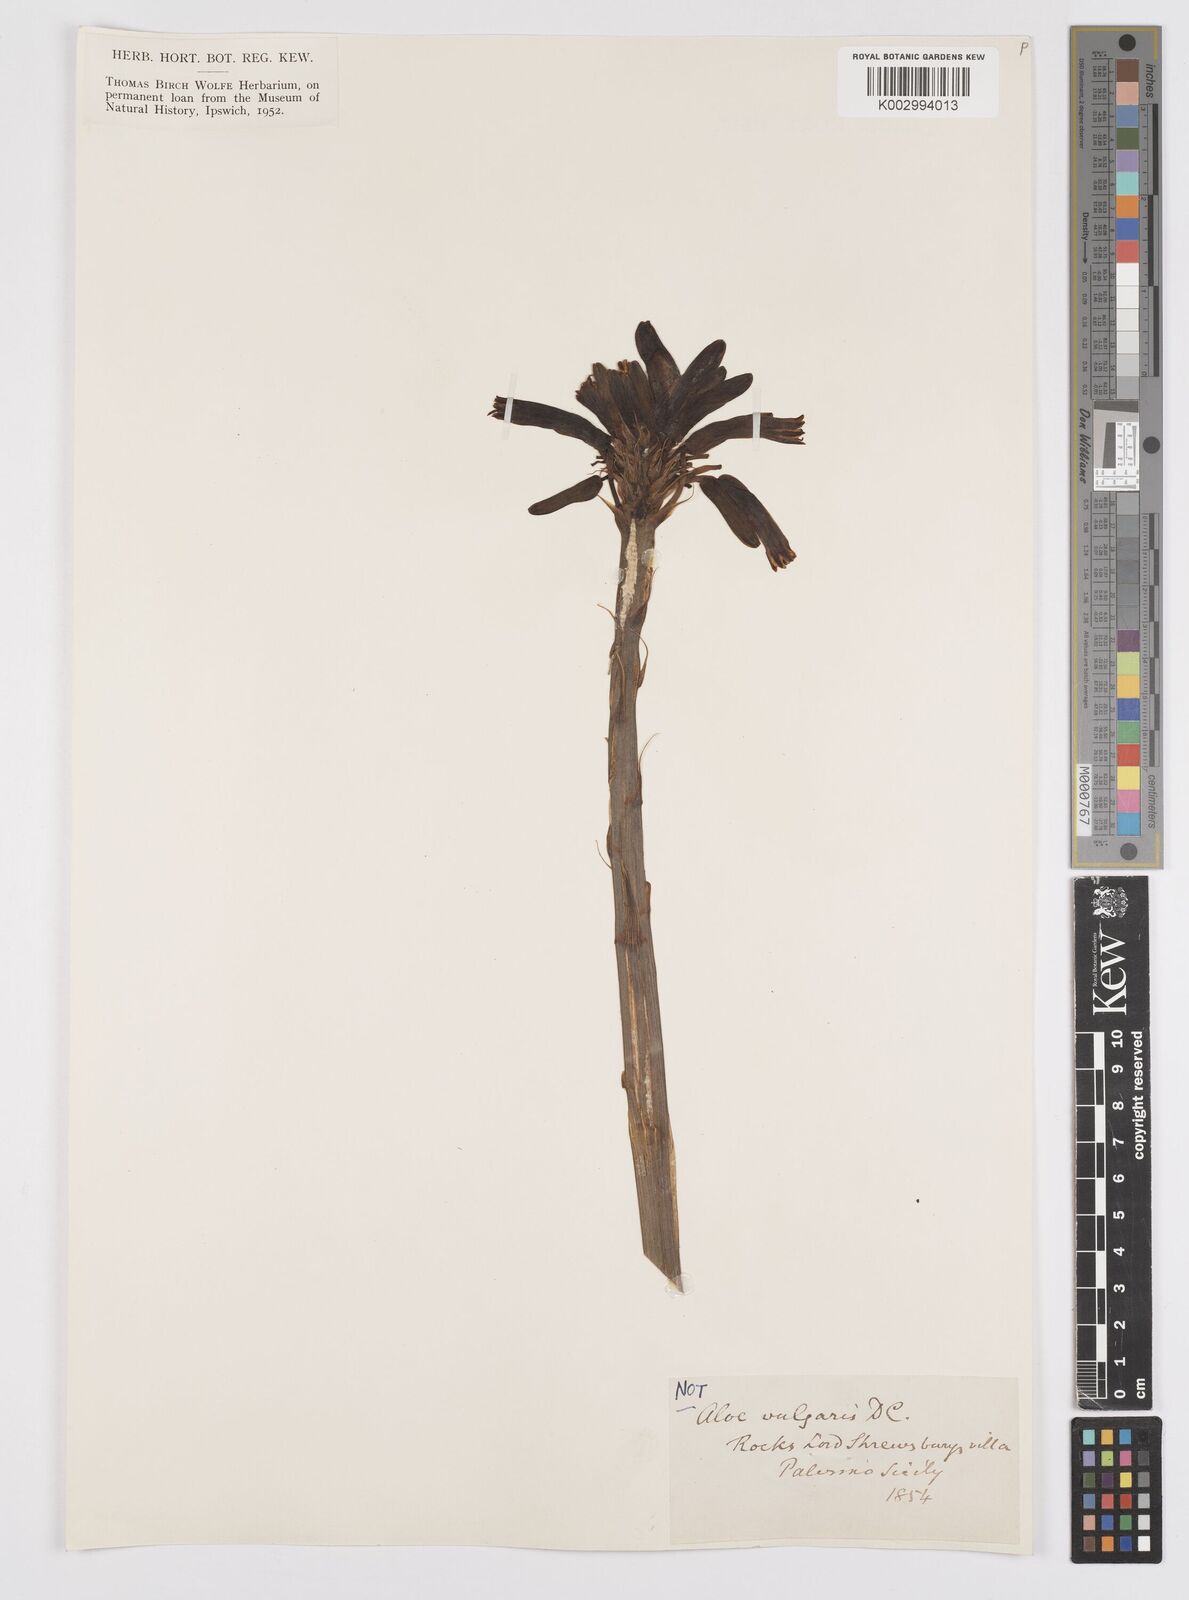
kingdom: Plantae
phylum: Tracheophyta
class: Liliopsida
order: Asparagales
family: Asphodelaceae
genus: Aloe
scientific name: Aloe vera
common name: Barbados aloe
